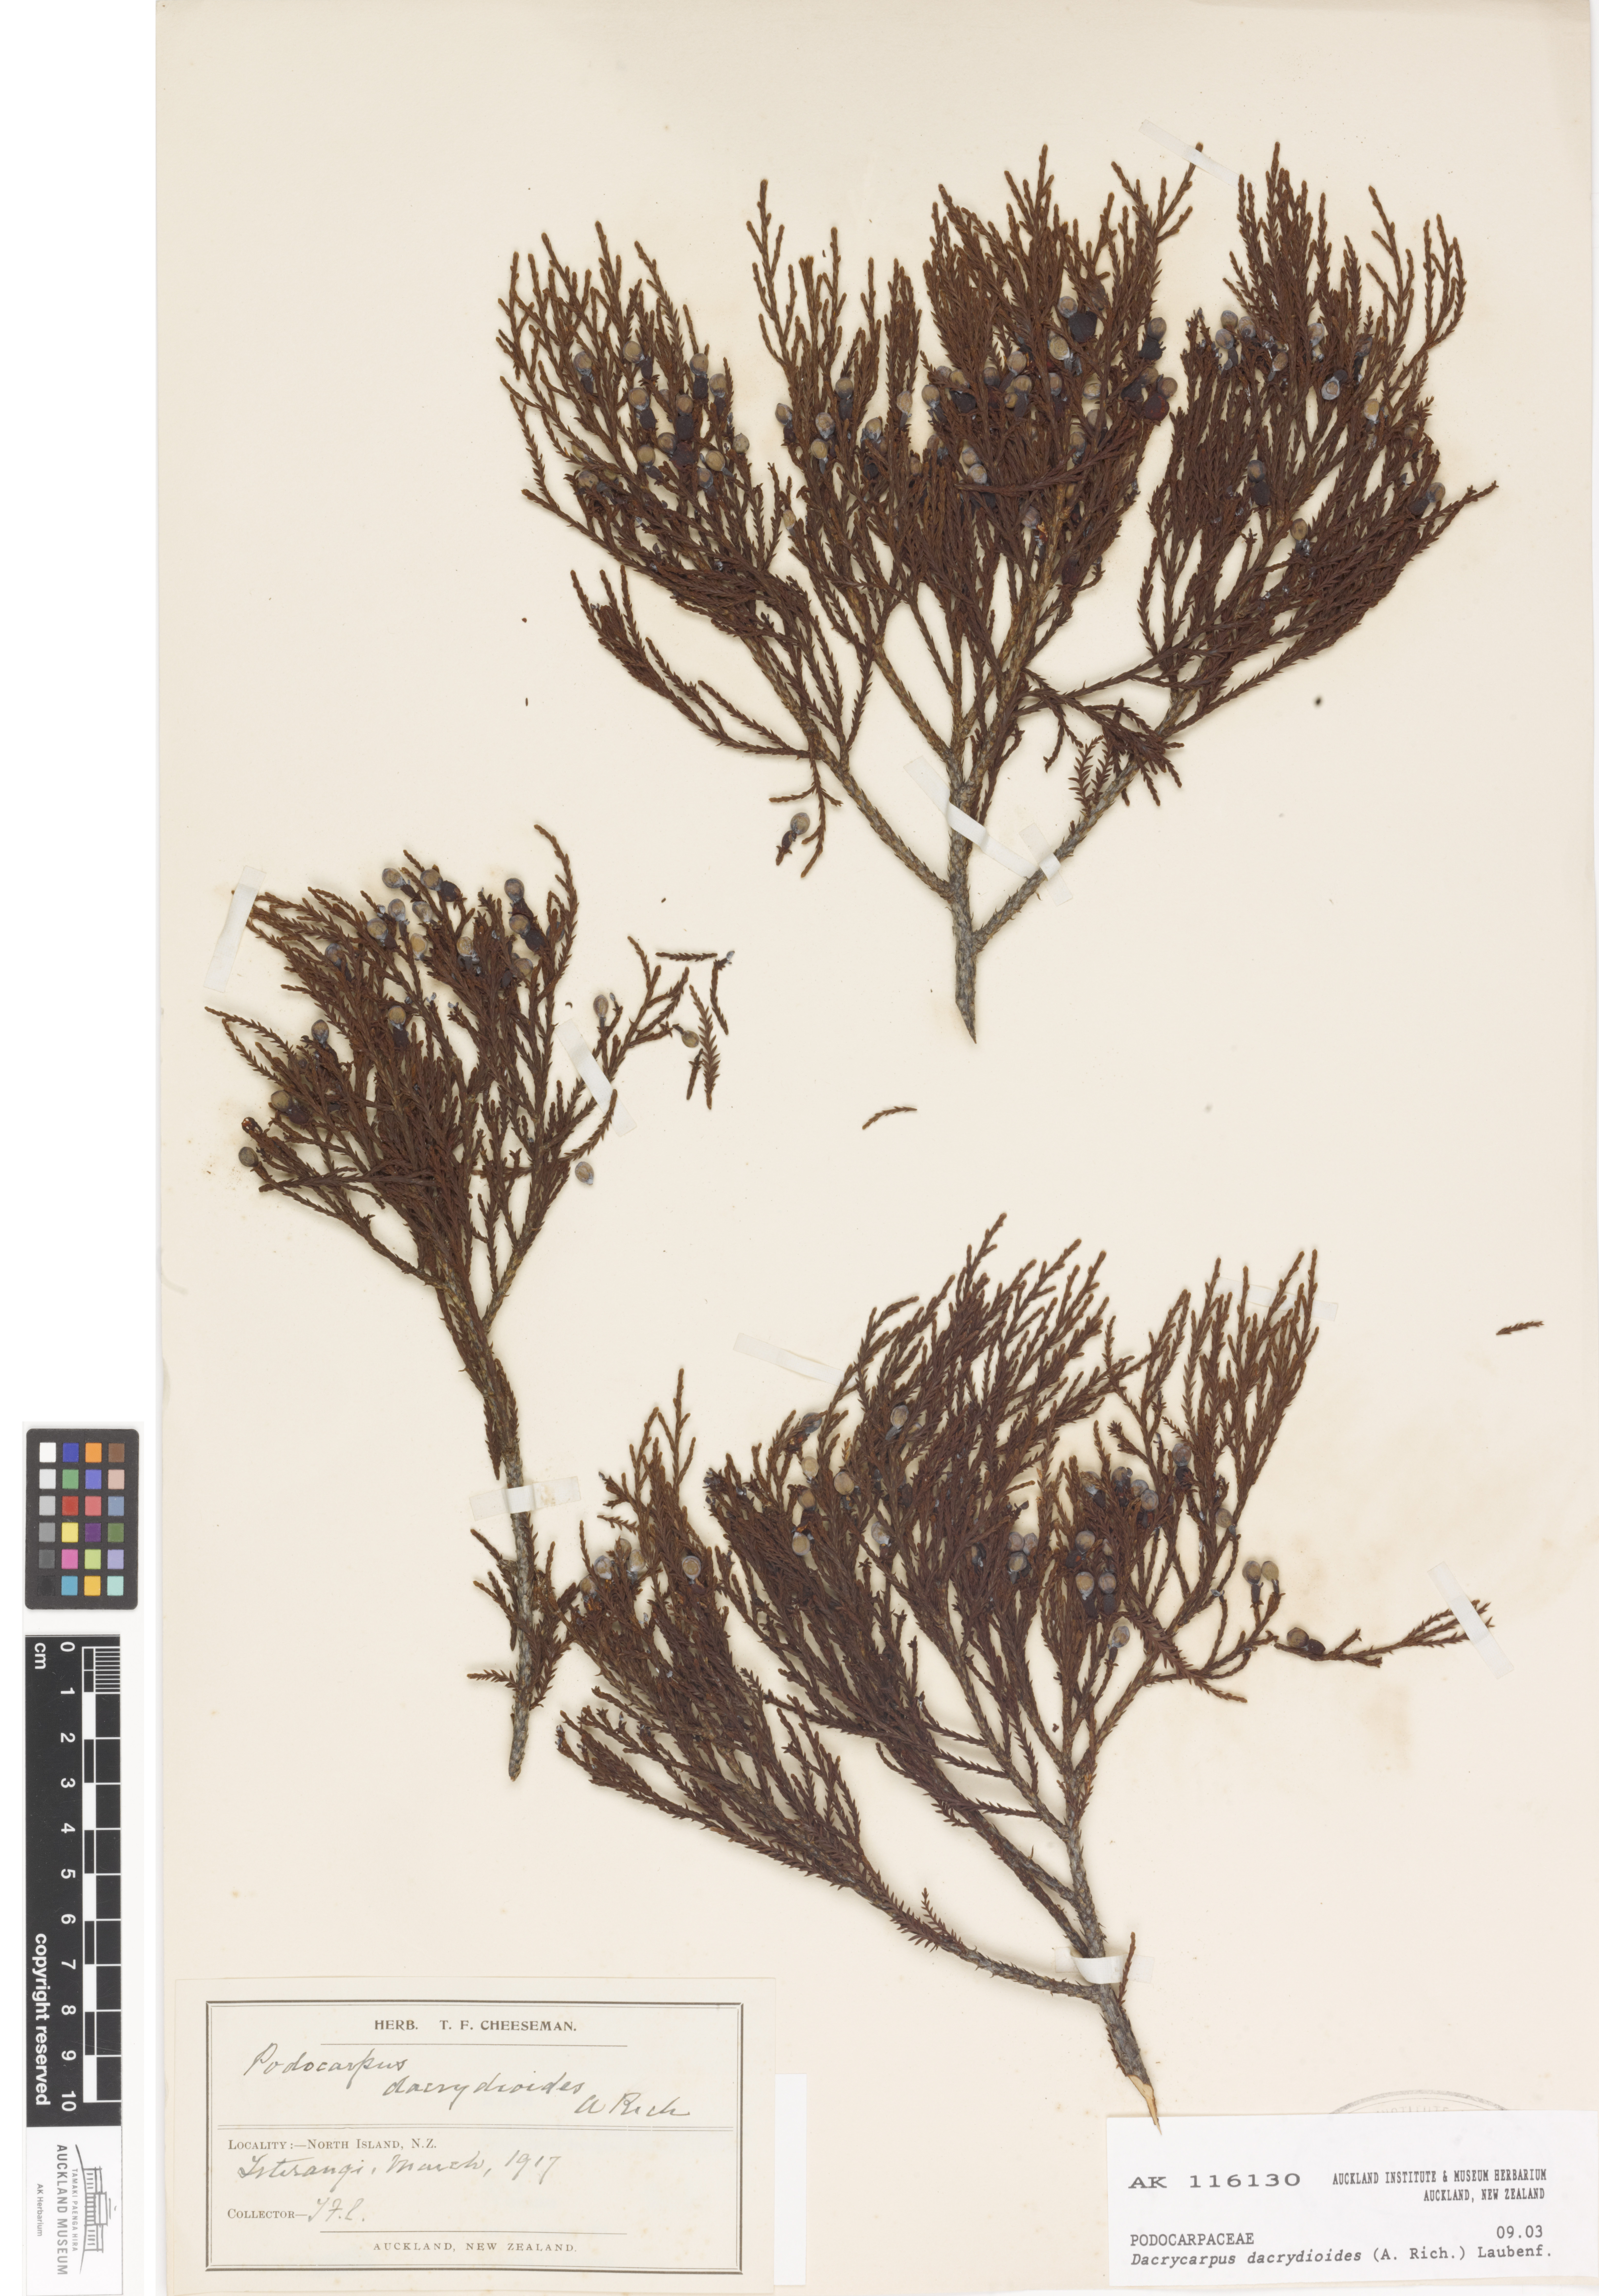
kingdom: Plantae
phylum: Tracheophyta
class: Pinopsida
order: Pinales
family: Podocarpaceae
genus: Dacrycarpus
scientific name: Dacrycarpus dacrydioides
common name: White pine
